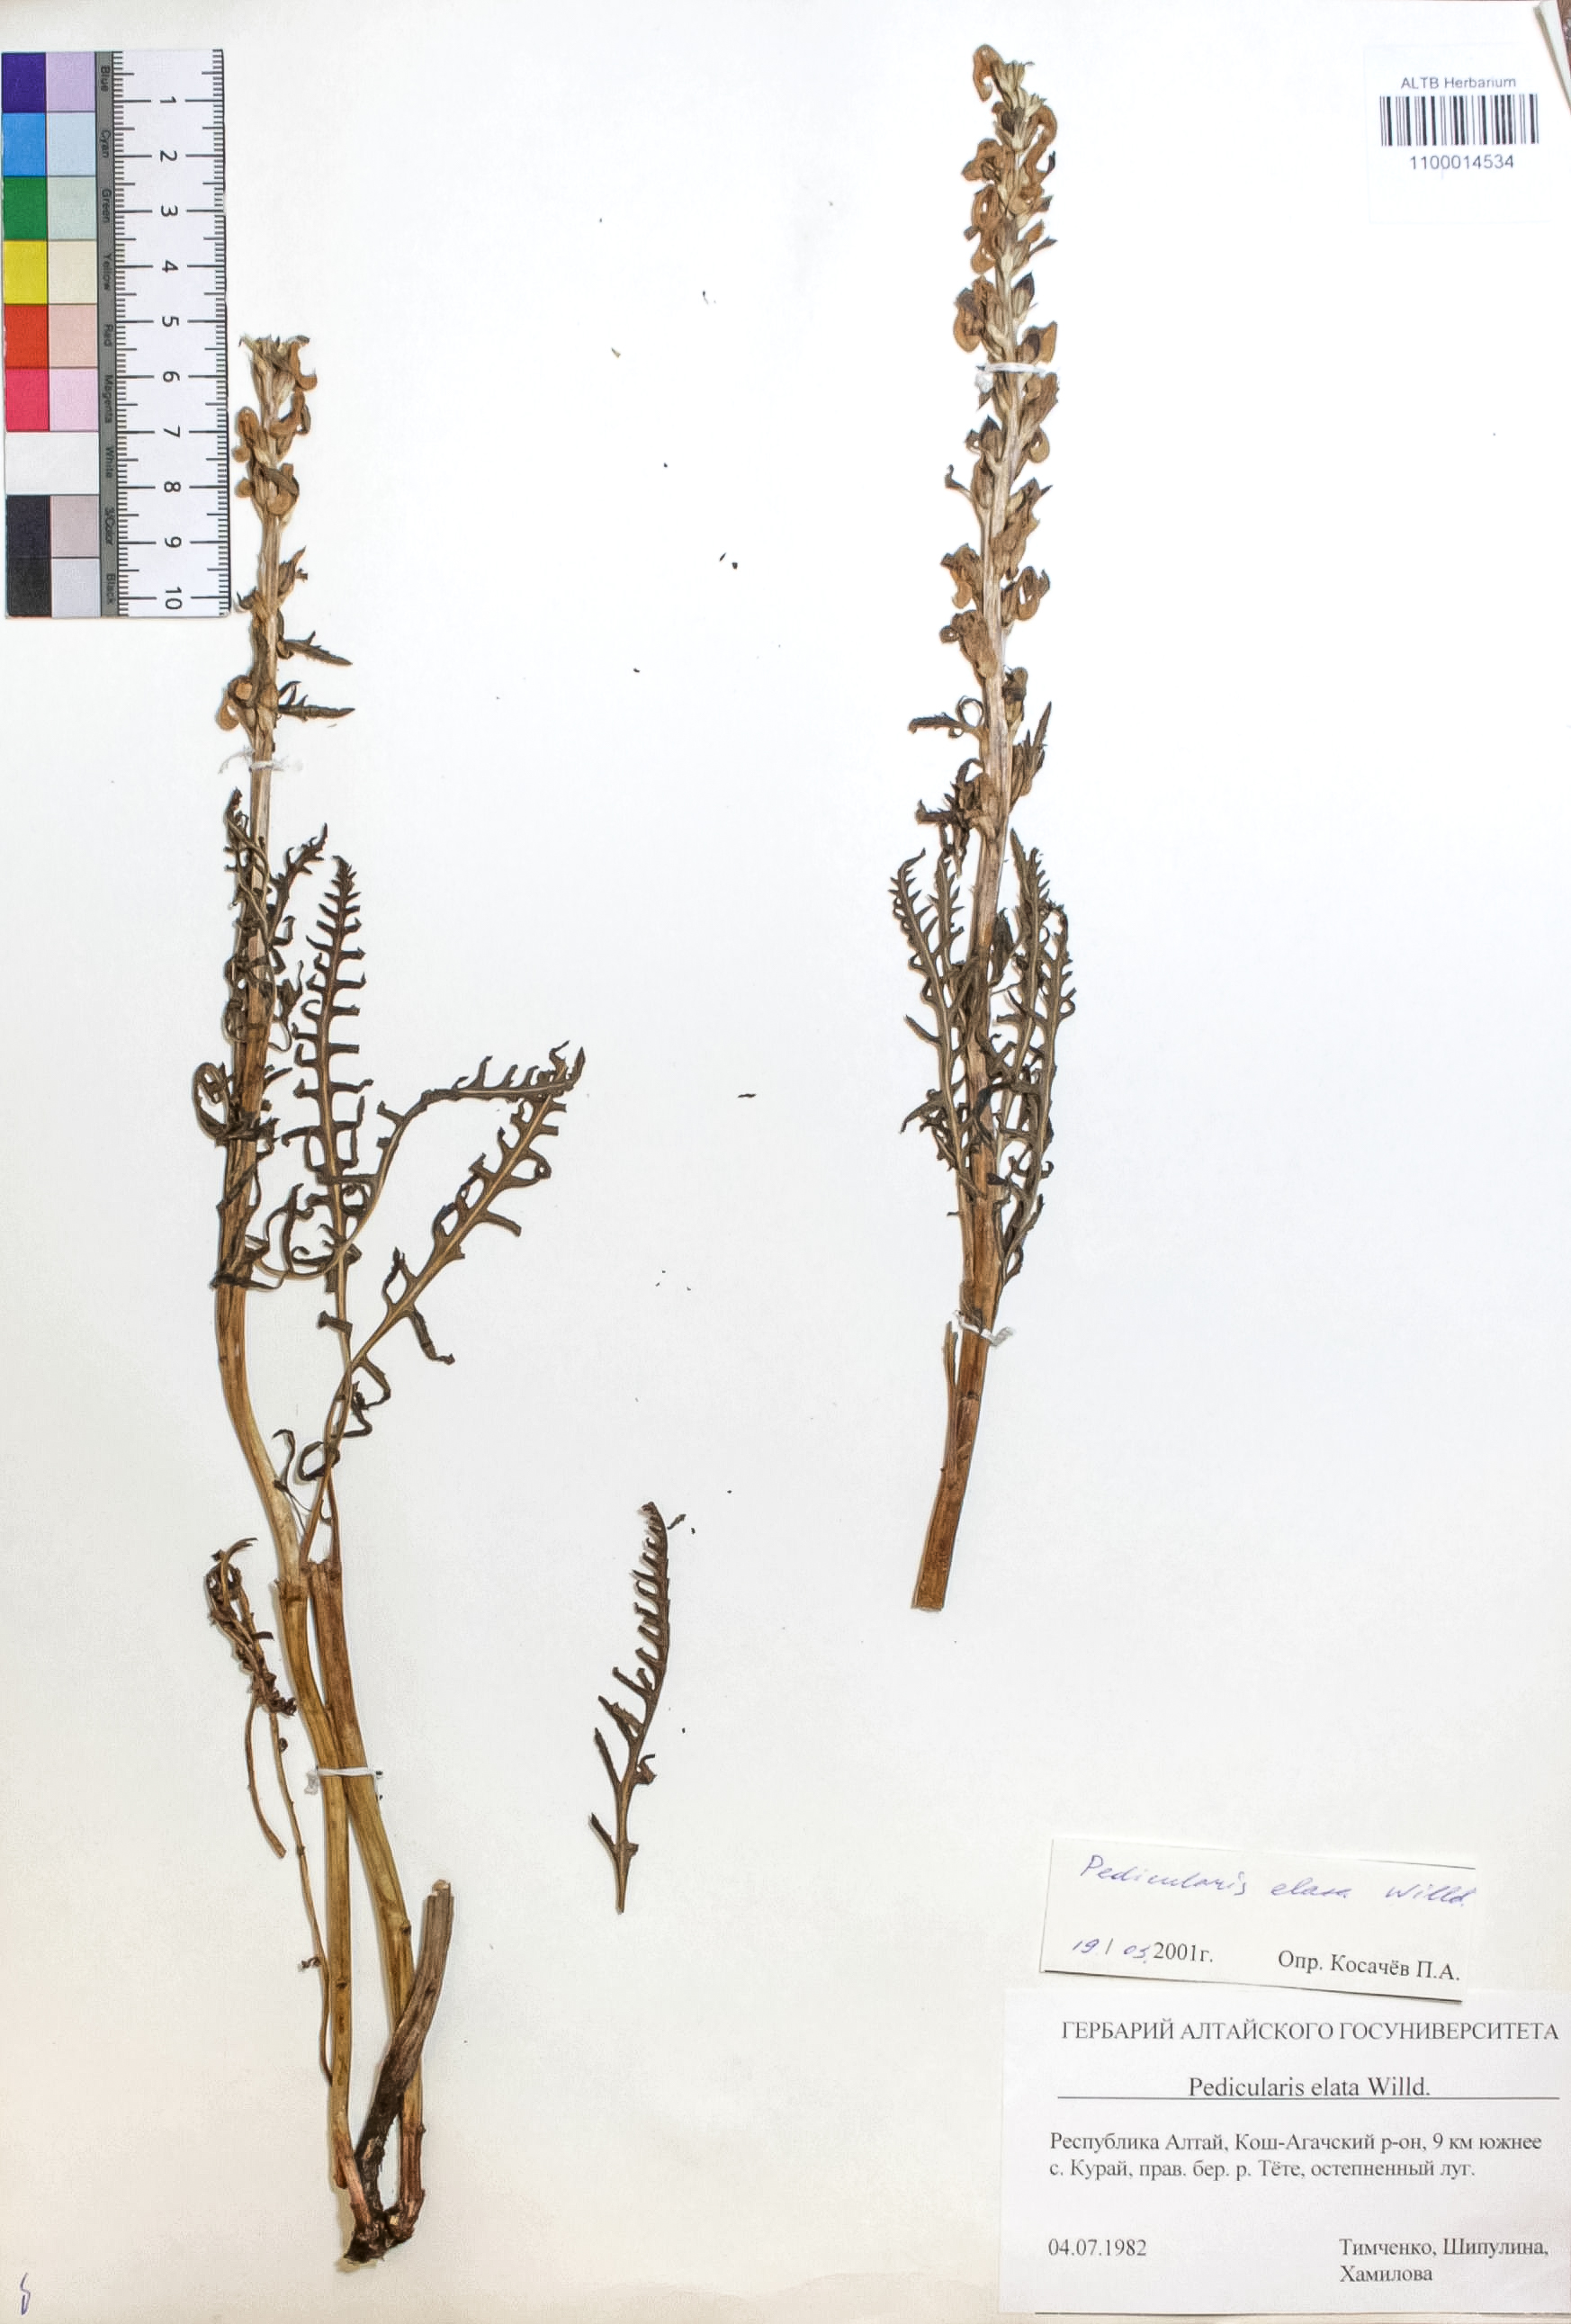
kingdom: Plantae
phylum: Tracheophyta
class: Magnoliopsida
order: Lamiales
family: Orobanchaceae
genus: Pedicularis
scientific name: Pedicularis elata
